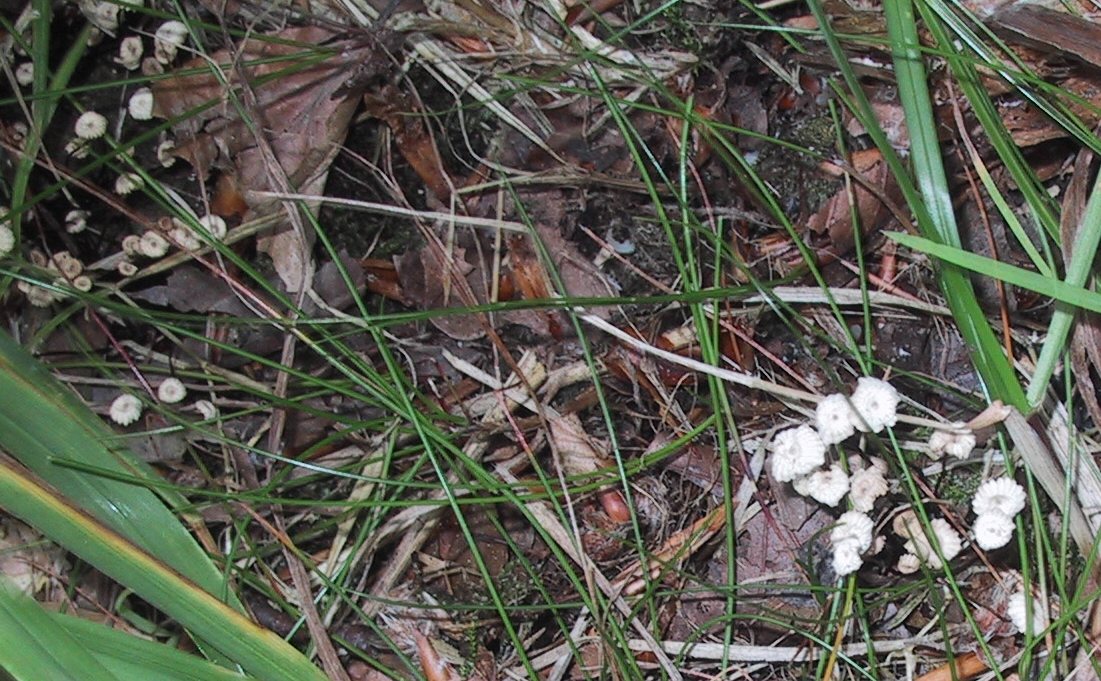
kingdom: Fungi
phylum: Basidiomycota
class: Agaricomycetes
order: Agaricales
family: Marasmiaceae
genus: Marasmius
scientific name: Marasmius rotula
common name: hjul-bruskhat
